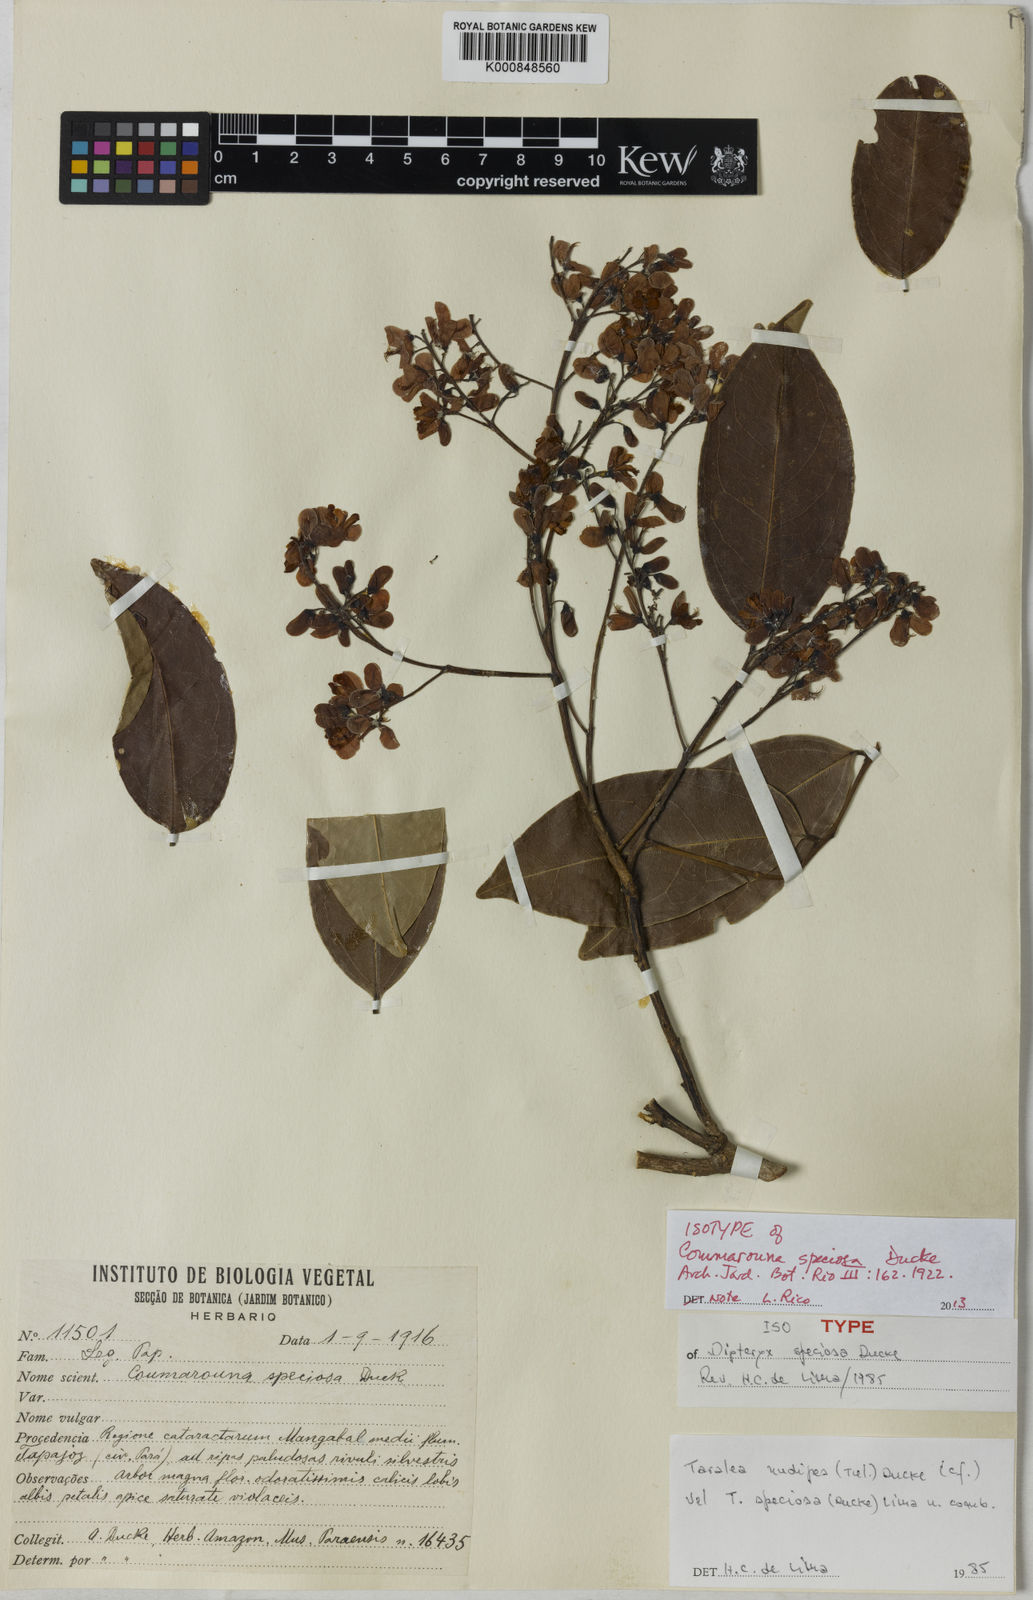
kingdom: Plantae
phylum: Tracheophyta
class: Magnoliopsida
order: Fabales
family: Fabaceae
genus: Dipteryx
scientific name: Dipteryx magnifica
